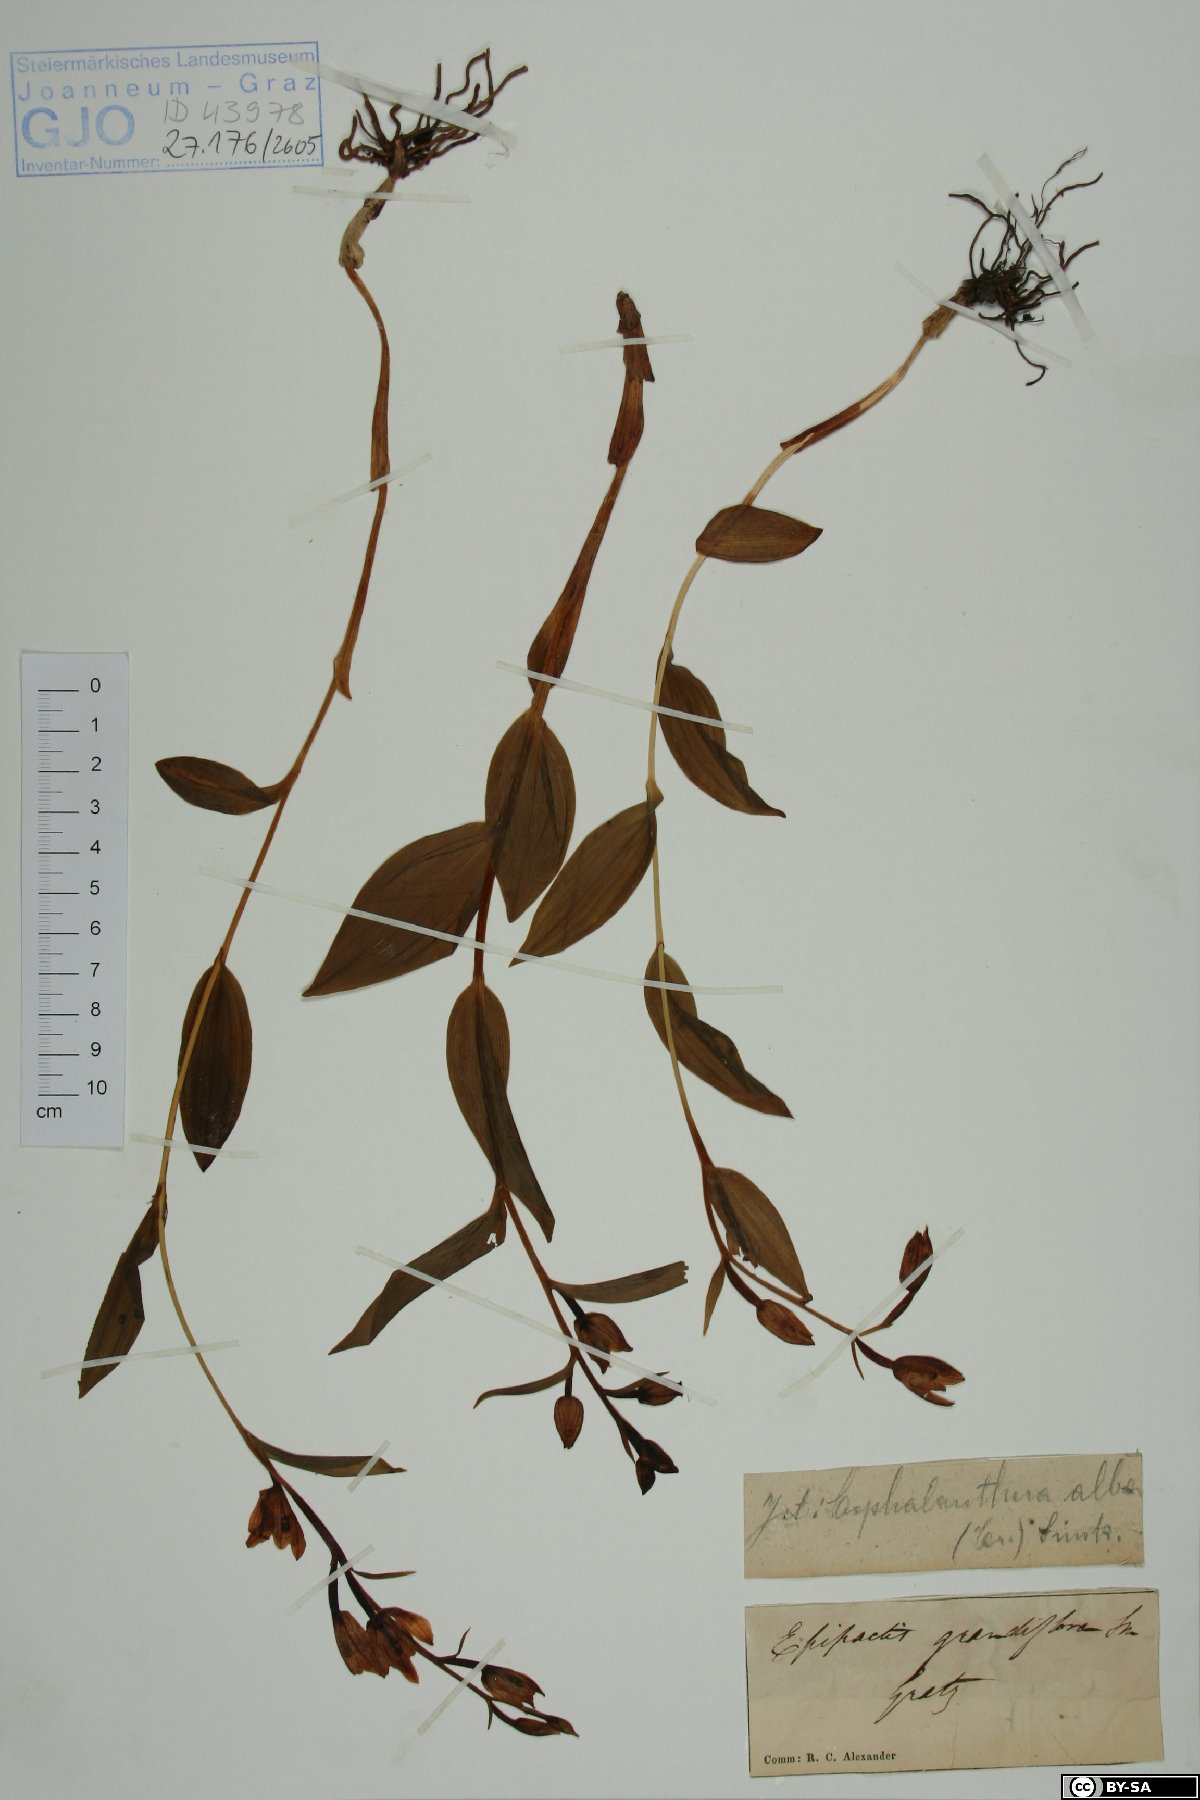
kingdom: Plantae
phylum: Tracheophyta
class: Liliopsida
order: Asparagales
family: Orchidaceae
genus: Cephalanthera
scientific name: Cephalanthera longifolia
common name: Narrow-leaved helleborine
